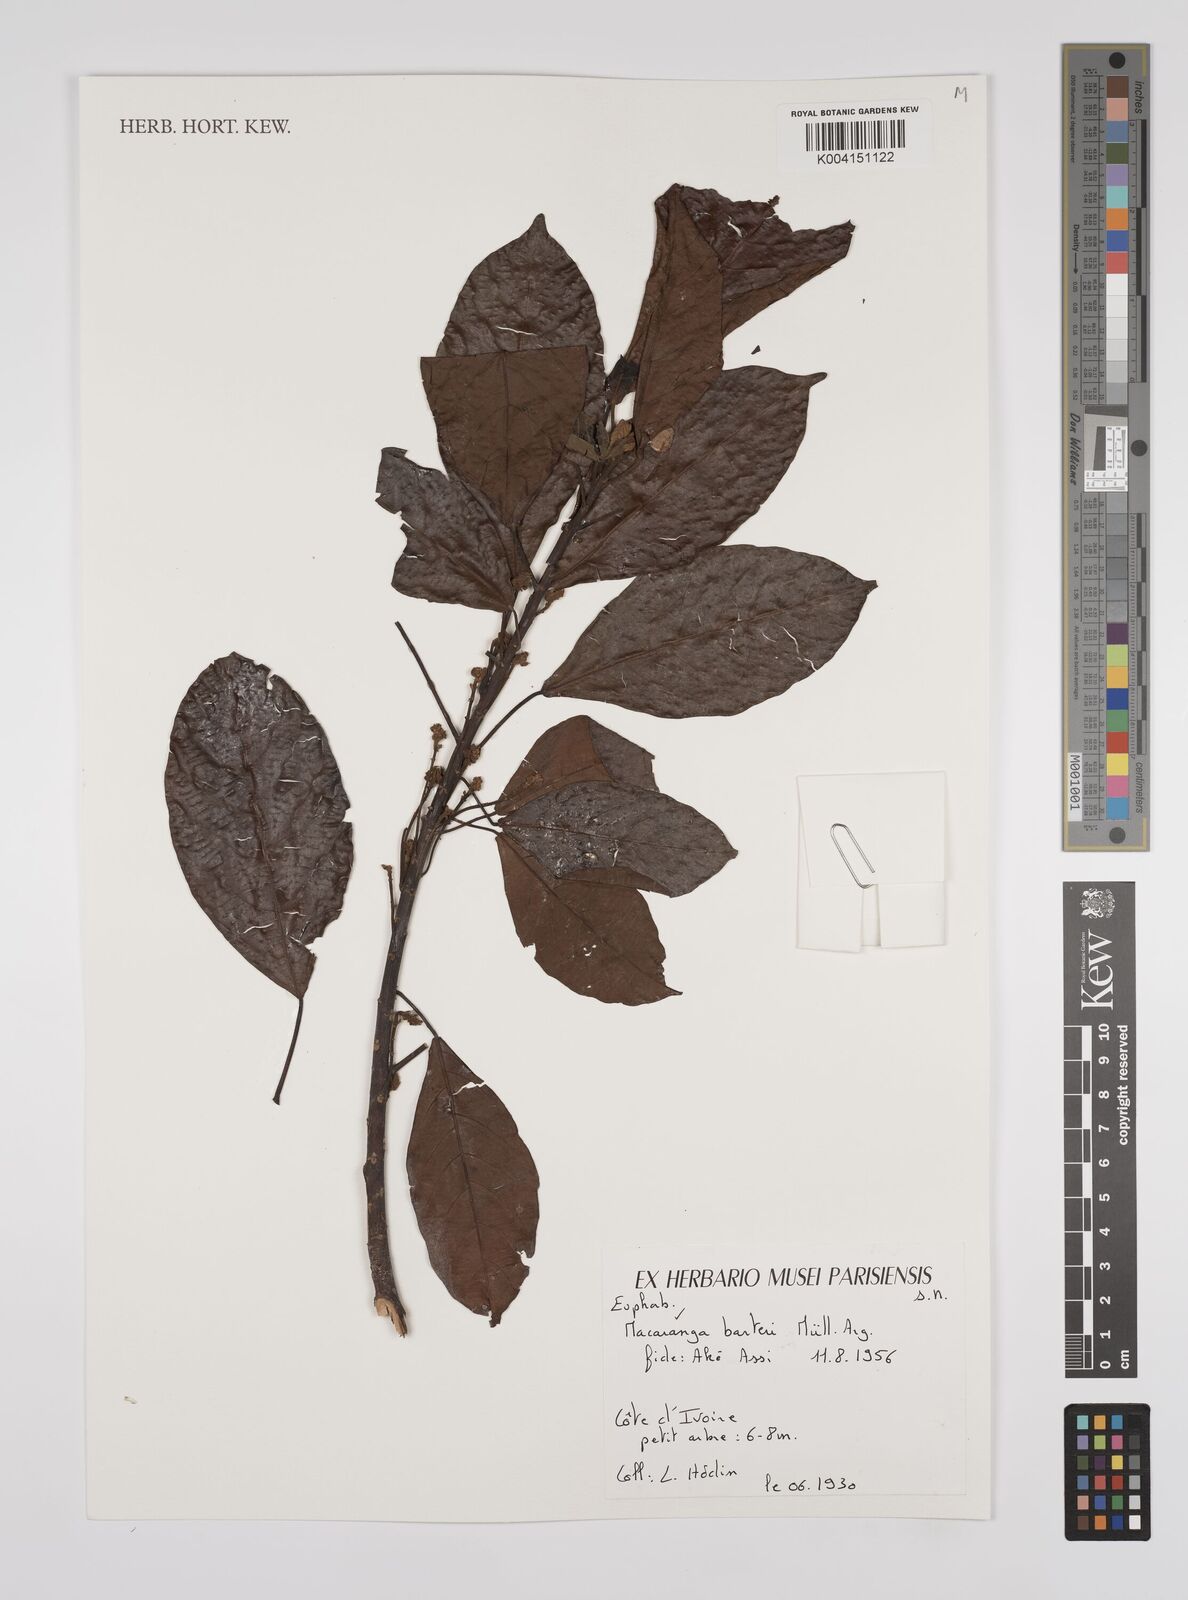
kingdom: Plantae
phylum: Tracheophyta
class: Magnoliopsida
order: Malpighiales
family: Euphorbiaceae
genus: Macaranga
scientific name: Macaranga barteri
